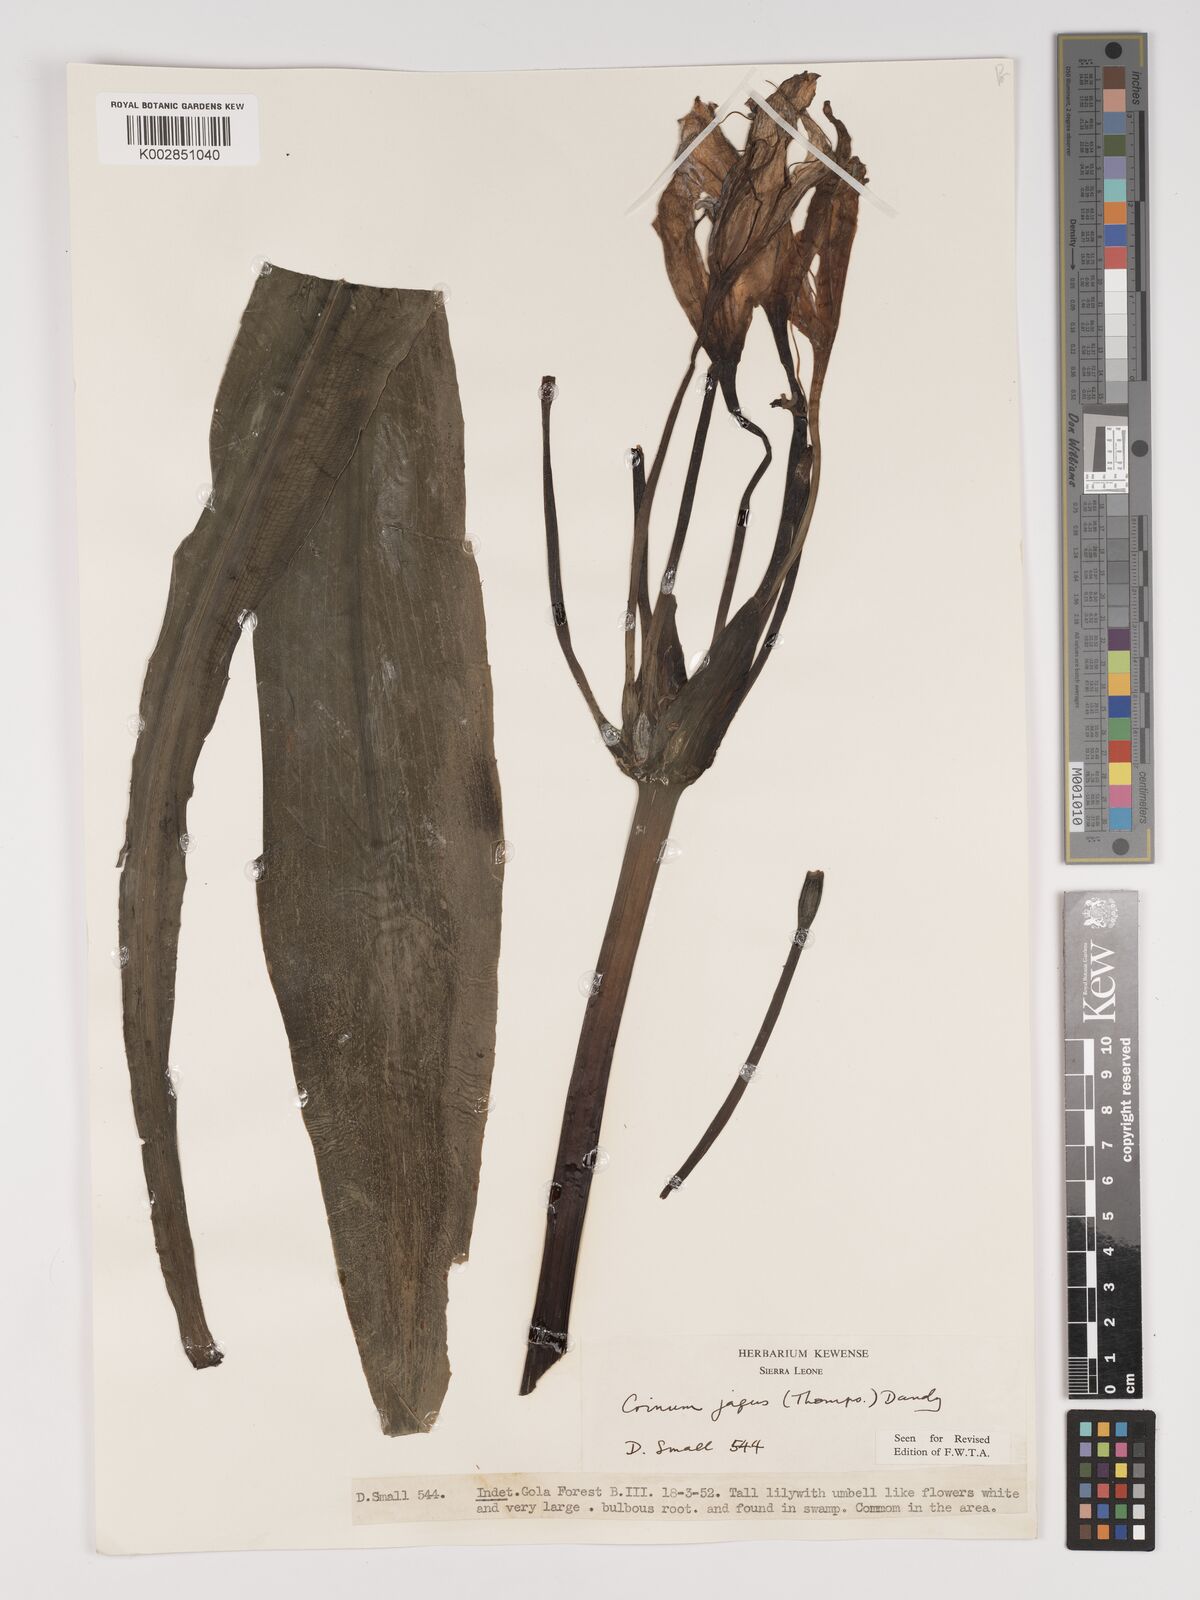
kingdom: Plantae
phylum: Tracheophyta
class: Liliopsida
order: Asparagales
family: Amaryllidaceae
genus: Crinum
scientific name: Crinum jagus
